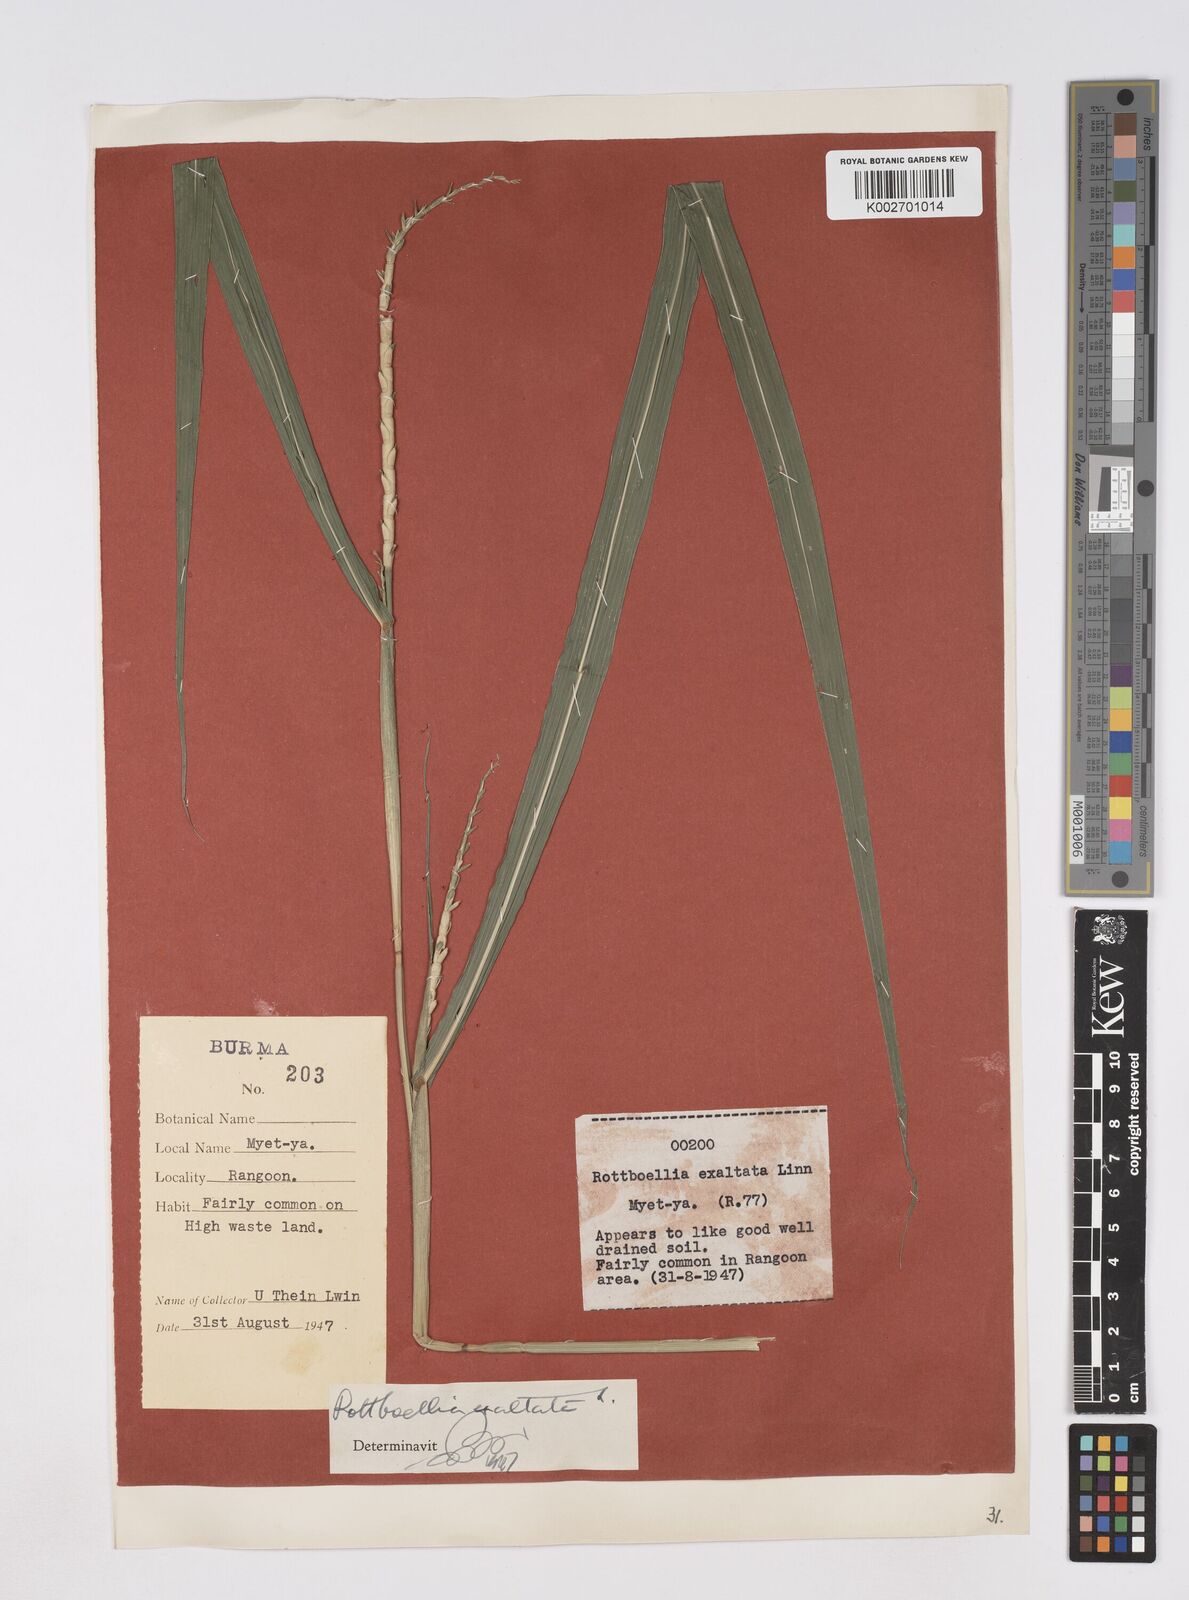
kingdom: Plantae
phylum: Tracheophyta
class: Liliopsida
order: Poales
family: Poaceae
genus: Ophiuros
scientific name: Ophiuros exaltatus
